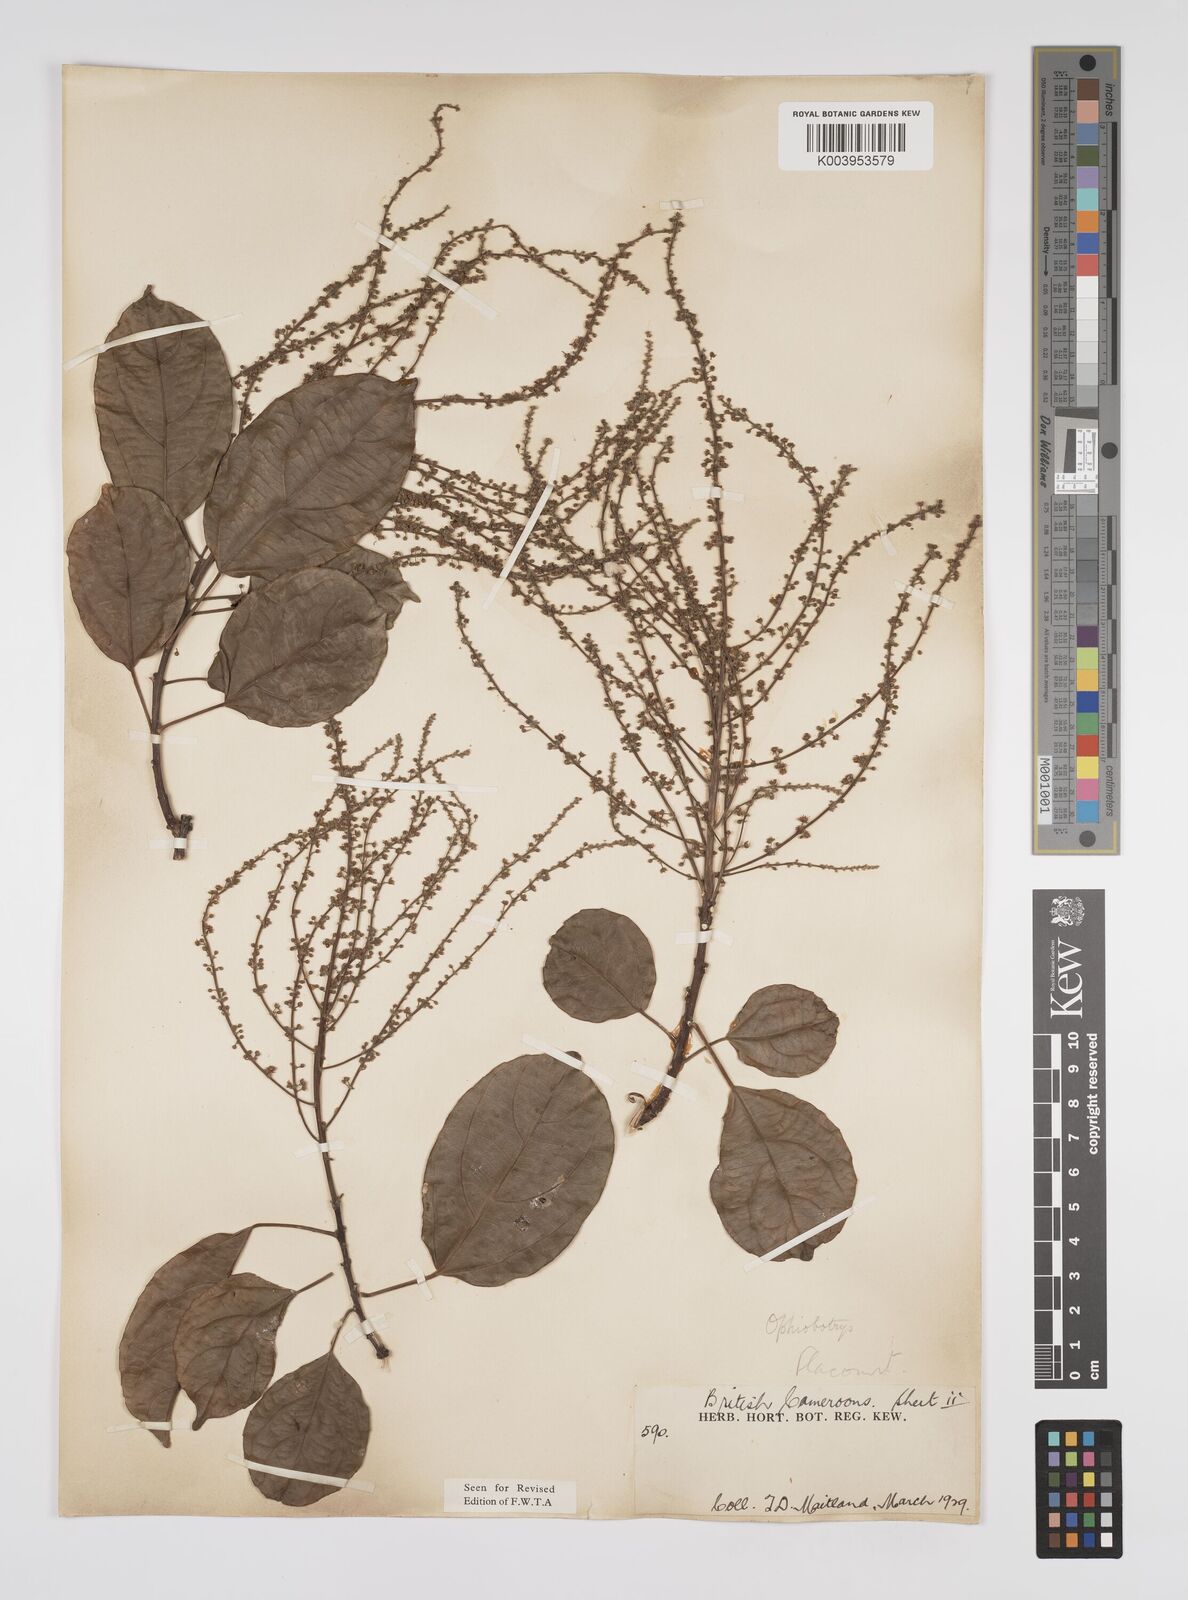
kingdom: Plantae
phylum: Tracheophyta
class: Magnoliopsida
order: Malpighiales
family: Euphorbiaceae
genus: Discoglypremna
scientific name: Discoglypremna caloneura
